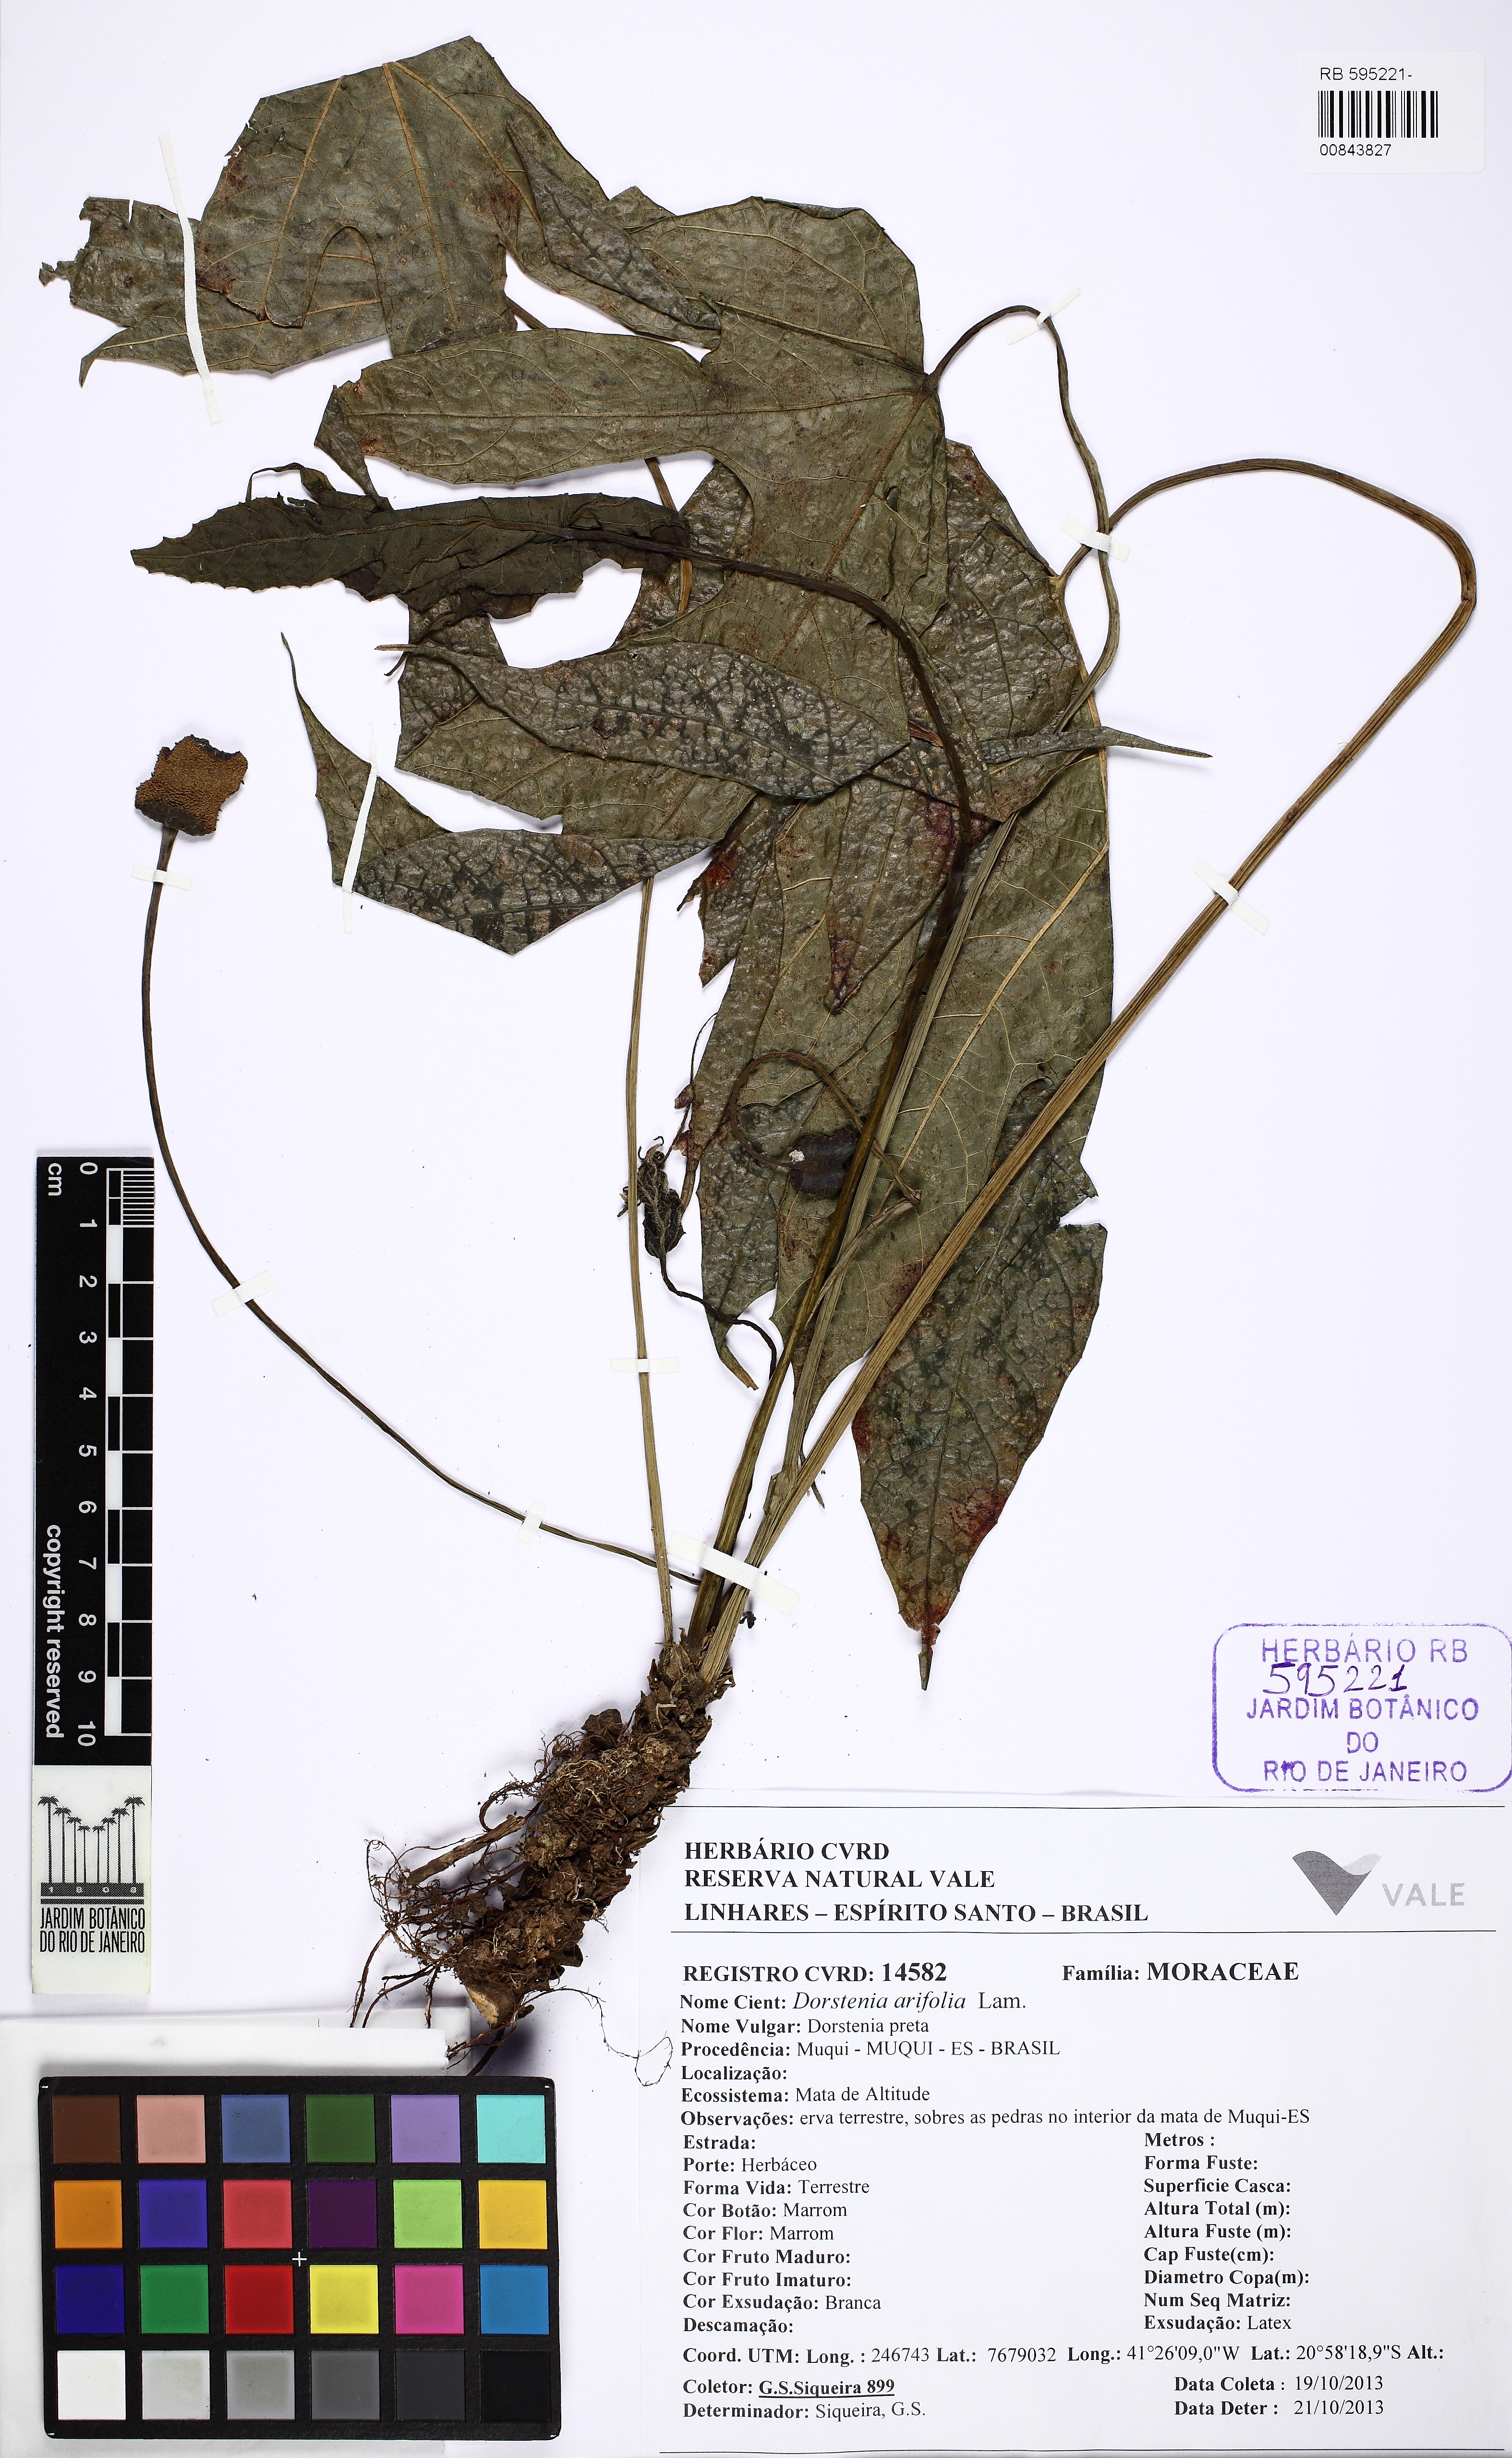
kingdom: Plantae
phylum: Tracheophyta
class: Magnoliopsida
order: Rosales
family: Moraceae
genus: Dorstenia
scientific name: Dorstenia arifolia
